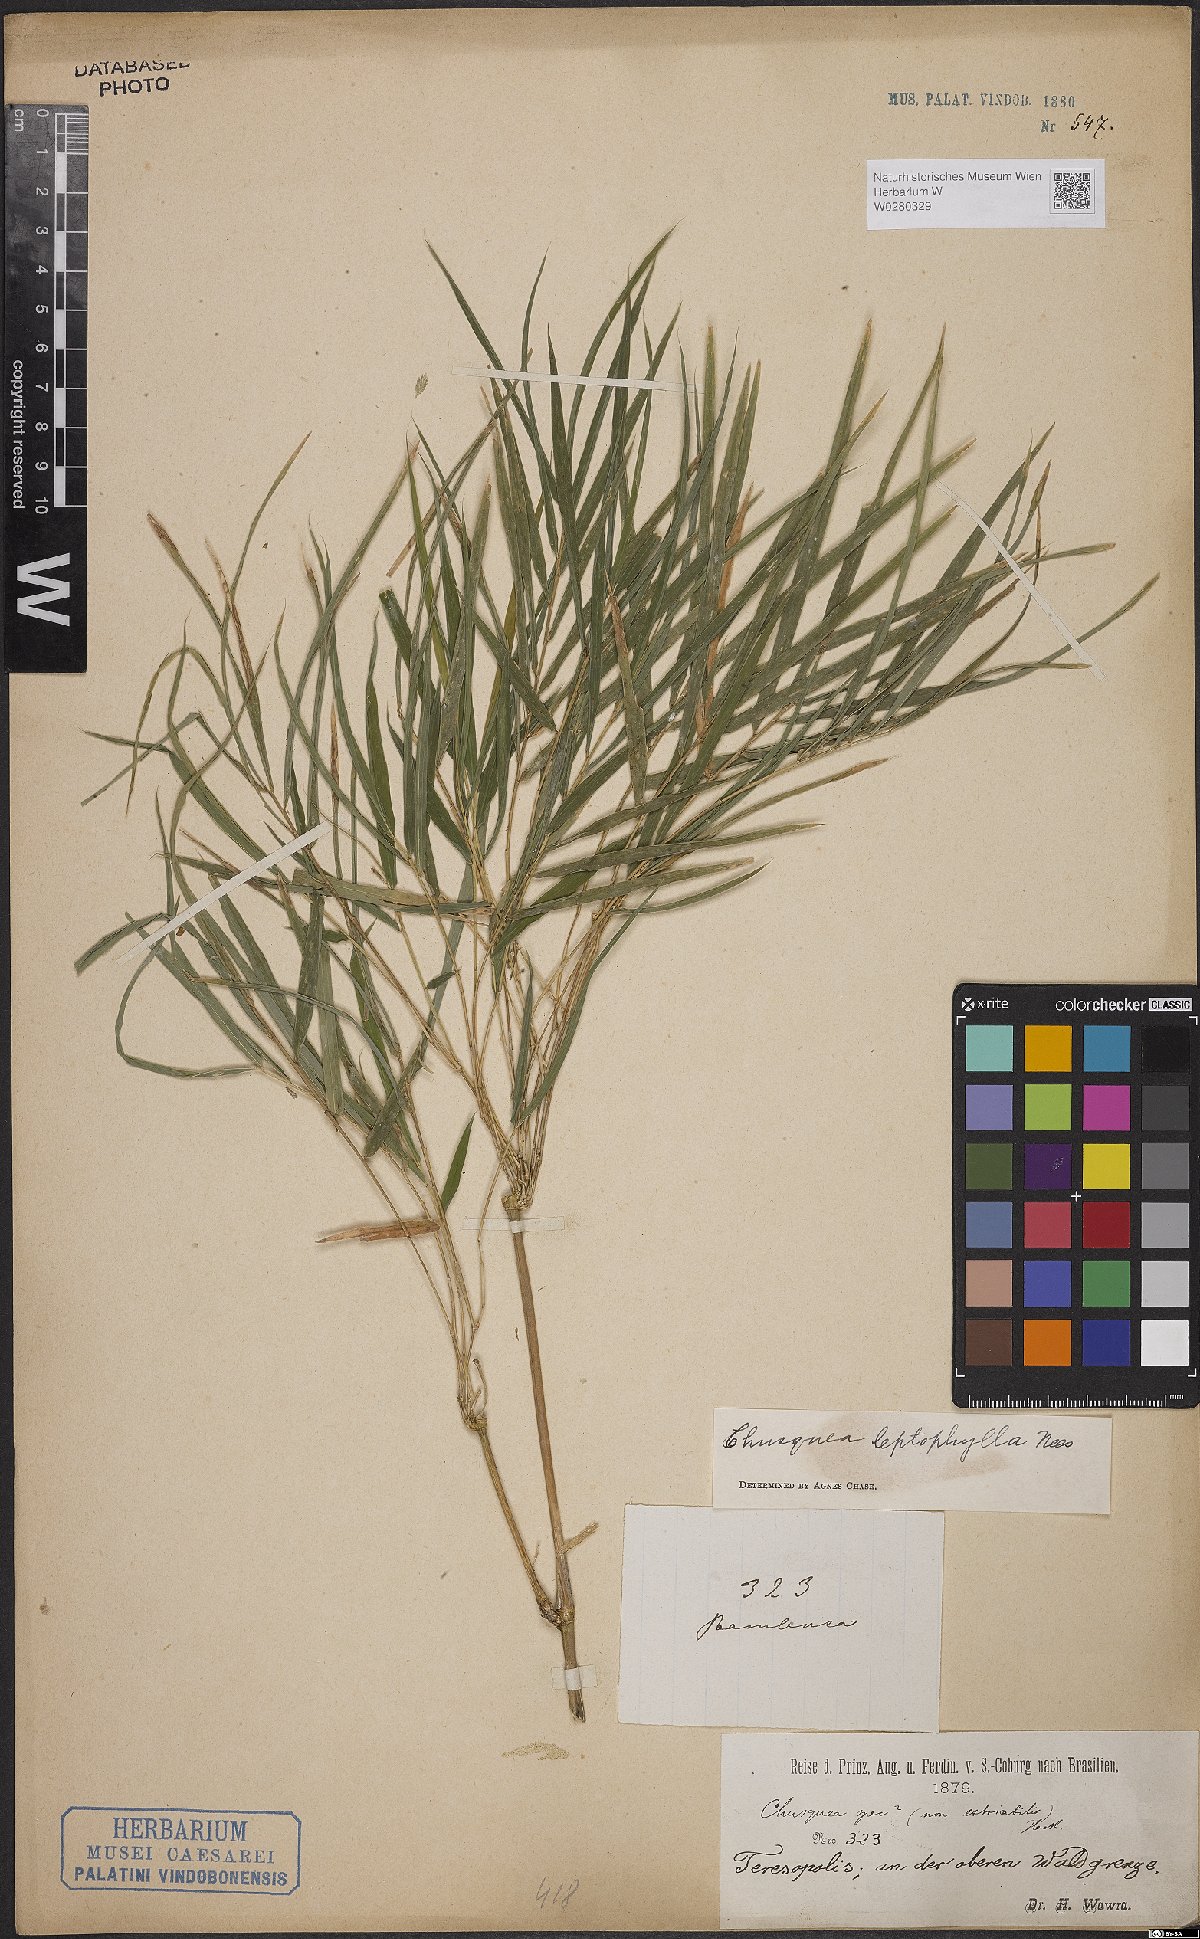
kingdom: Plantae
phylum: Tracheophyta
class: Liliopsida
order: Poales
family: Poaceae
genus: Chusquea
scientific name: Chusquea leptophylla
